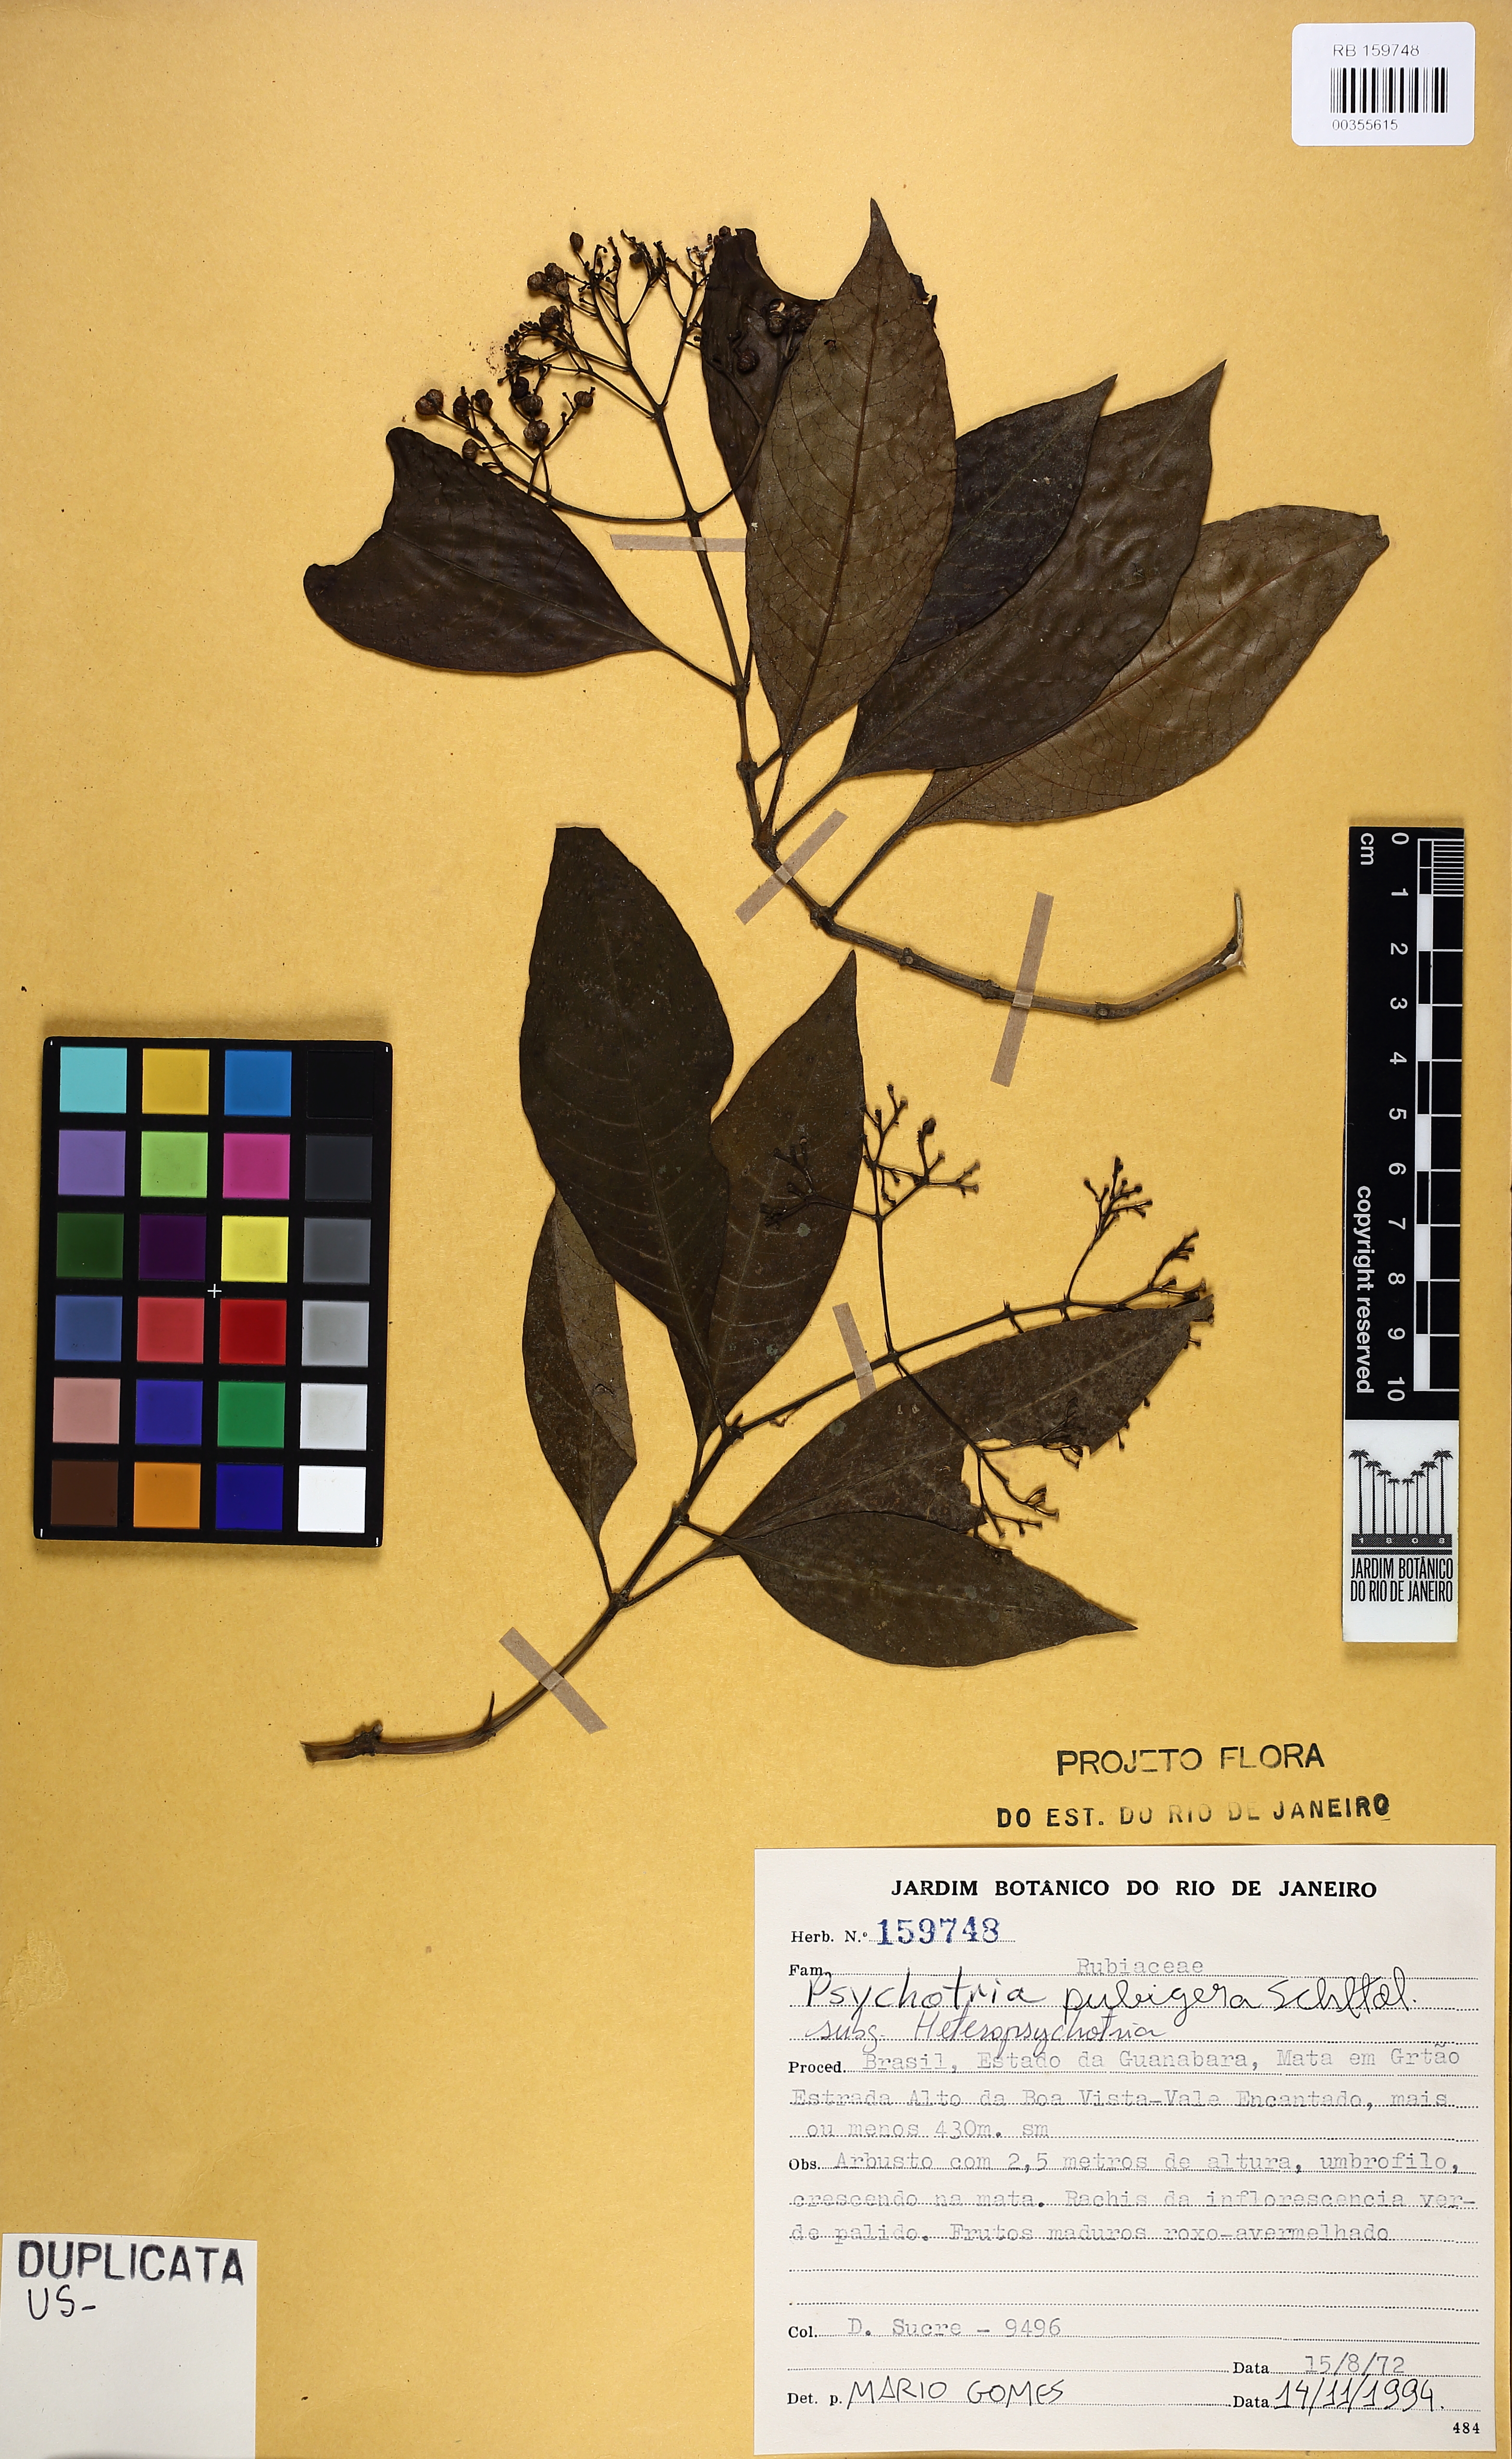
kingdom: Plantae
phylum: Tracheophyta
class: Magnoliopsida
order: Gentianales
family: Rubiaceae
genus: Psychotria
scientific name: Psychotria nemorosa
